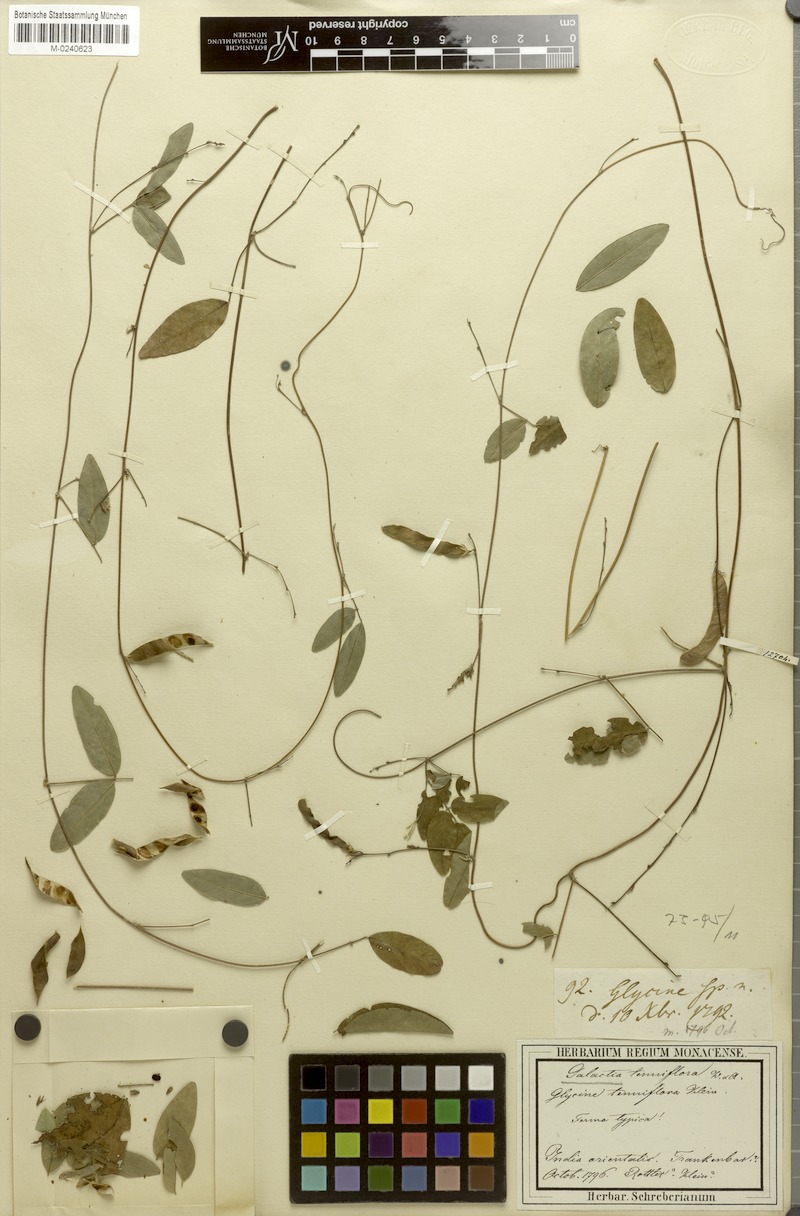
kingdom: Plantae
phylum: Tracheophyta
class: Magnoliopsida
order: Fabales
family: Fabaceae
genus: Galactia
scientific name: Galactia striata
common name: Florida hammock milkpea
